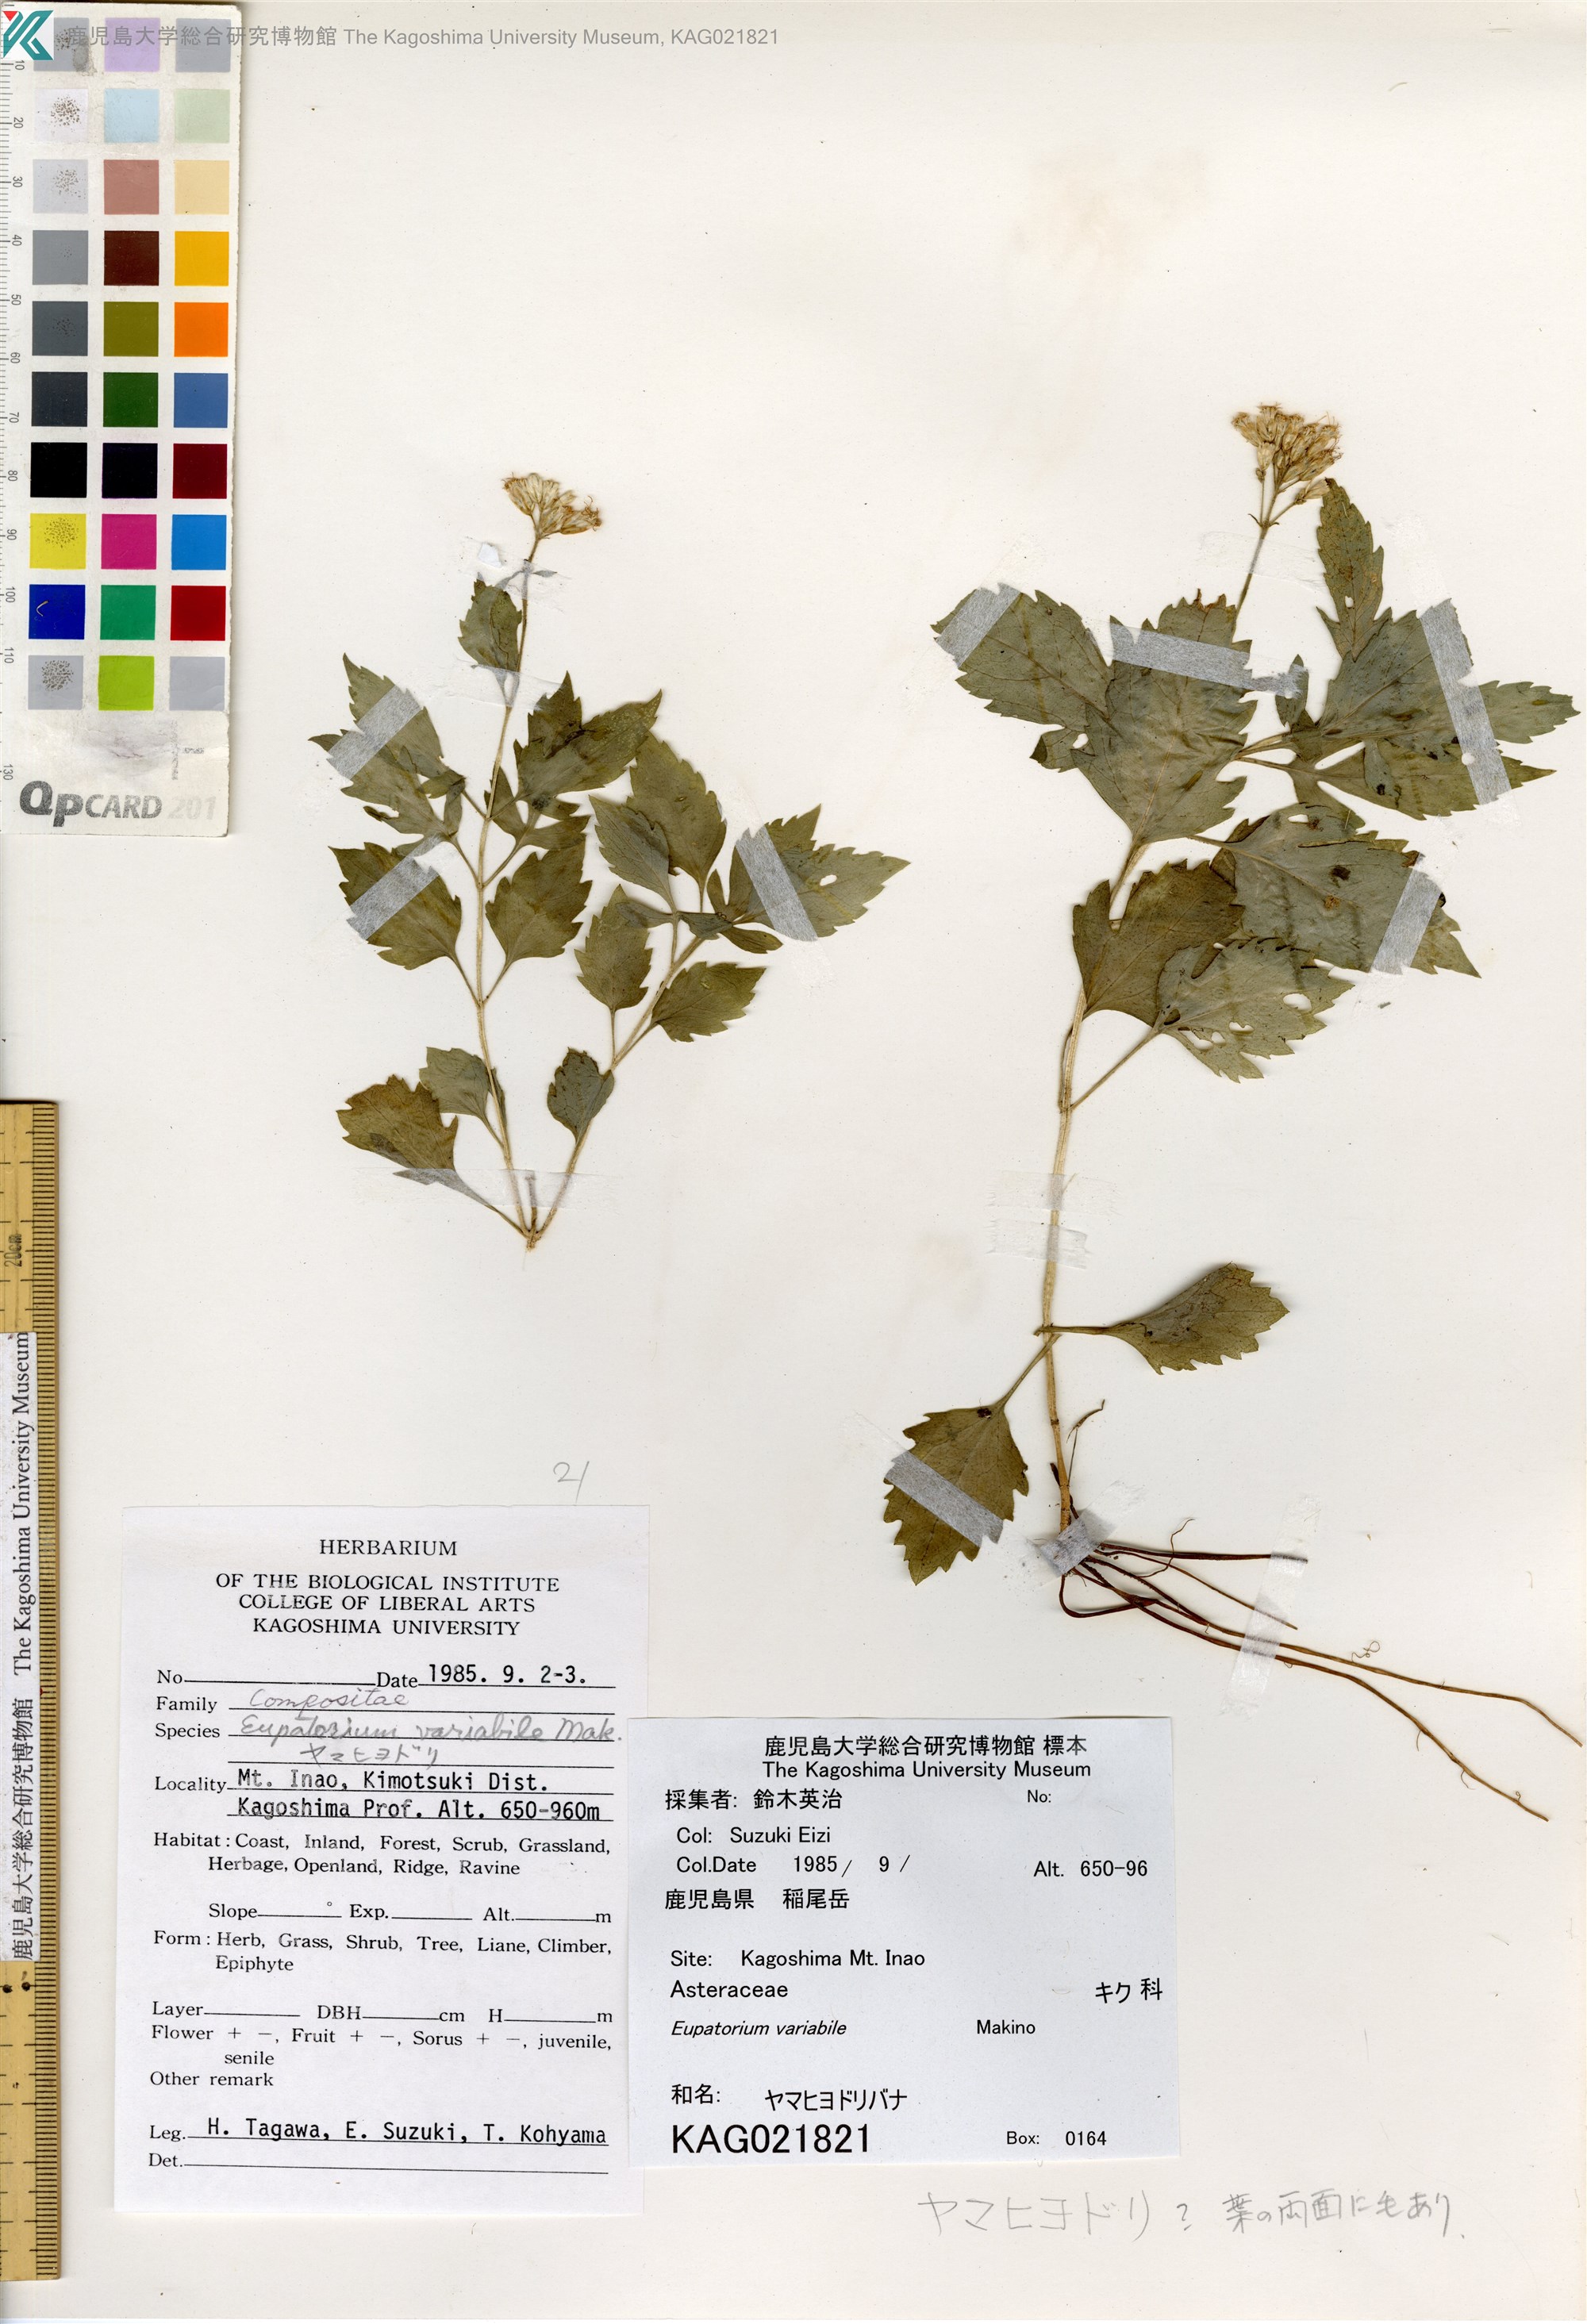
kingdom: Plantae
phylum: Tracheophyta
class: Magnoliopsida
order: Asterales
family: Asteraceae
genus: Eupatorium
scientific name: Eupatorium variabile
